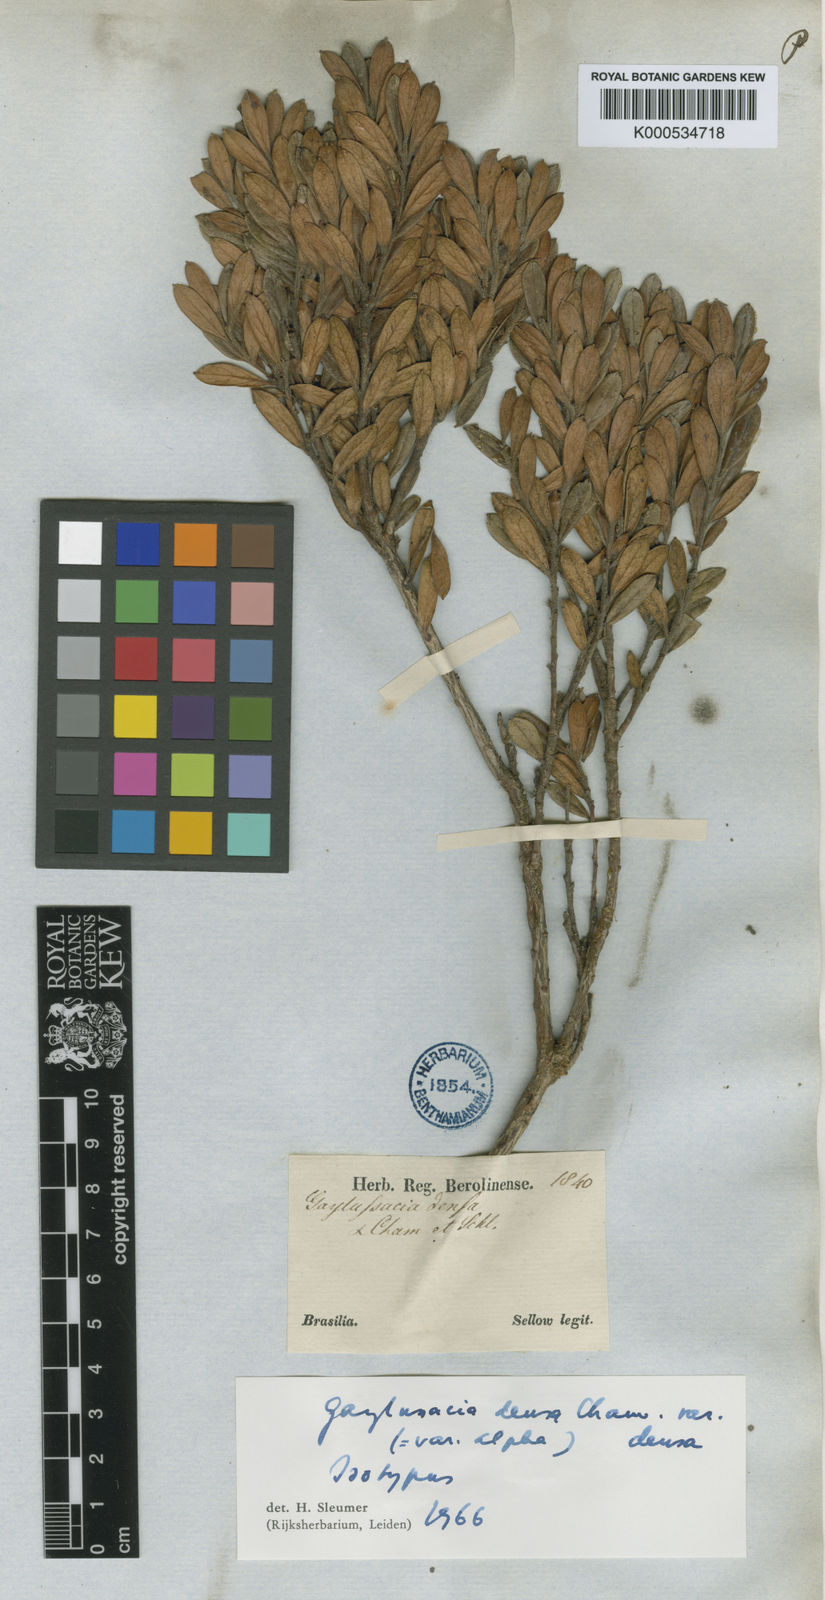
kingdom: Plantae
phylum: Tracheophyta
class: Magnoliopsida
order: Ericales
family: Ericaceae
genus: Gaylussacia
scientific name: Gaylussacia densa
